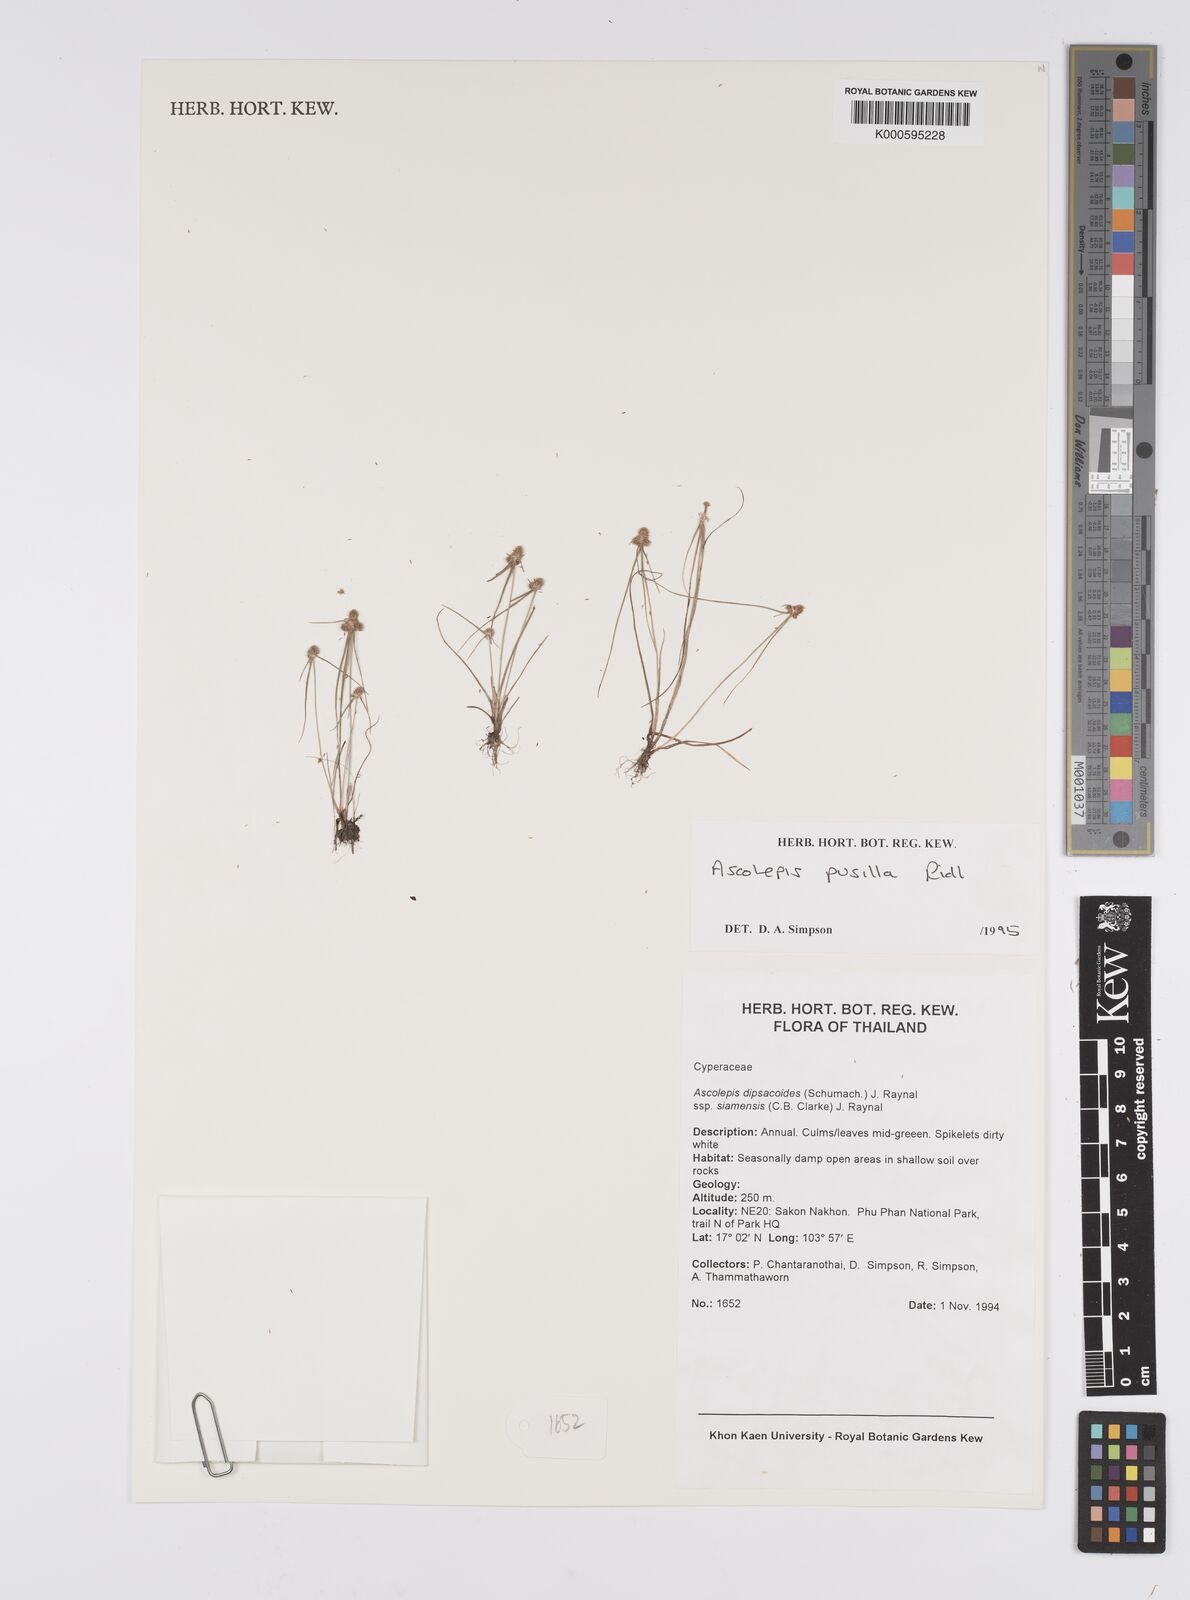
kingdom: Plantae
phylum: Tracheophyta
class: Liliopsida
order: Poales
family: Cyperaceae
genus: Cyperus
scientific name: Cyperus ascopusillus
